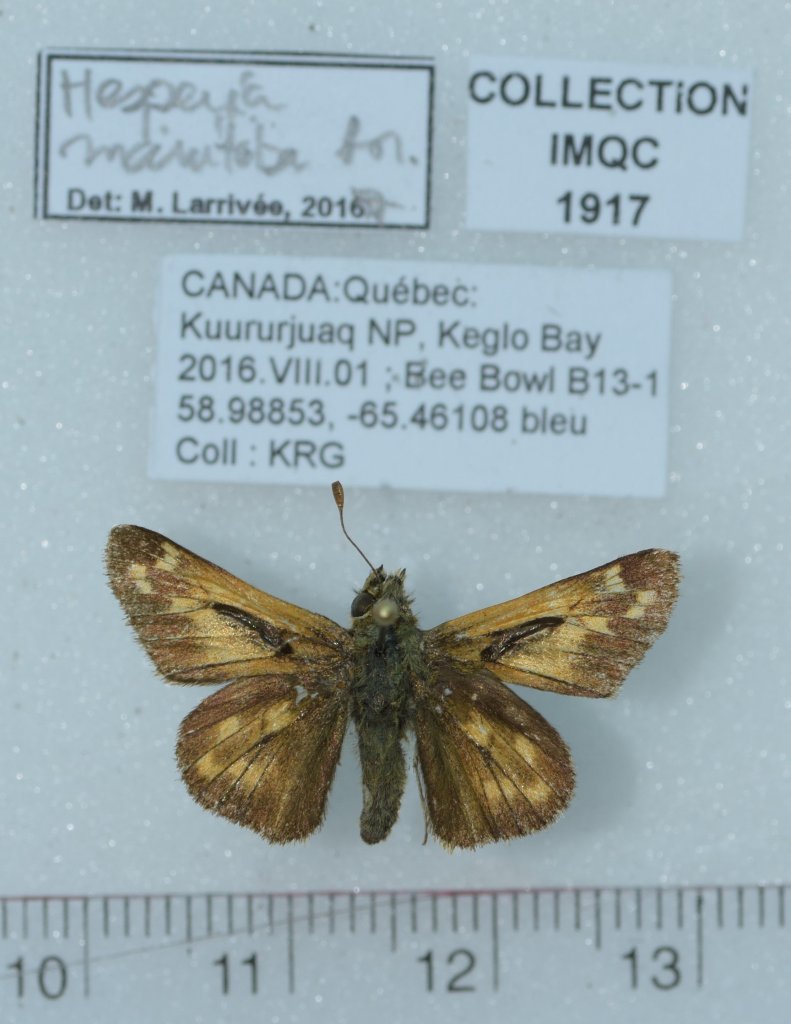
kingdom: Animalia
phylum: Arthropoda
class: Insecta
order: Lepidoptera
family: Hesperiidae
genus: Hesperia
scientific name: Hesperia comma
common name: Common Branded Skipper
